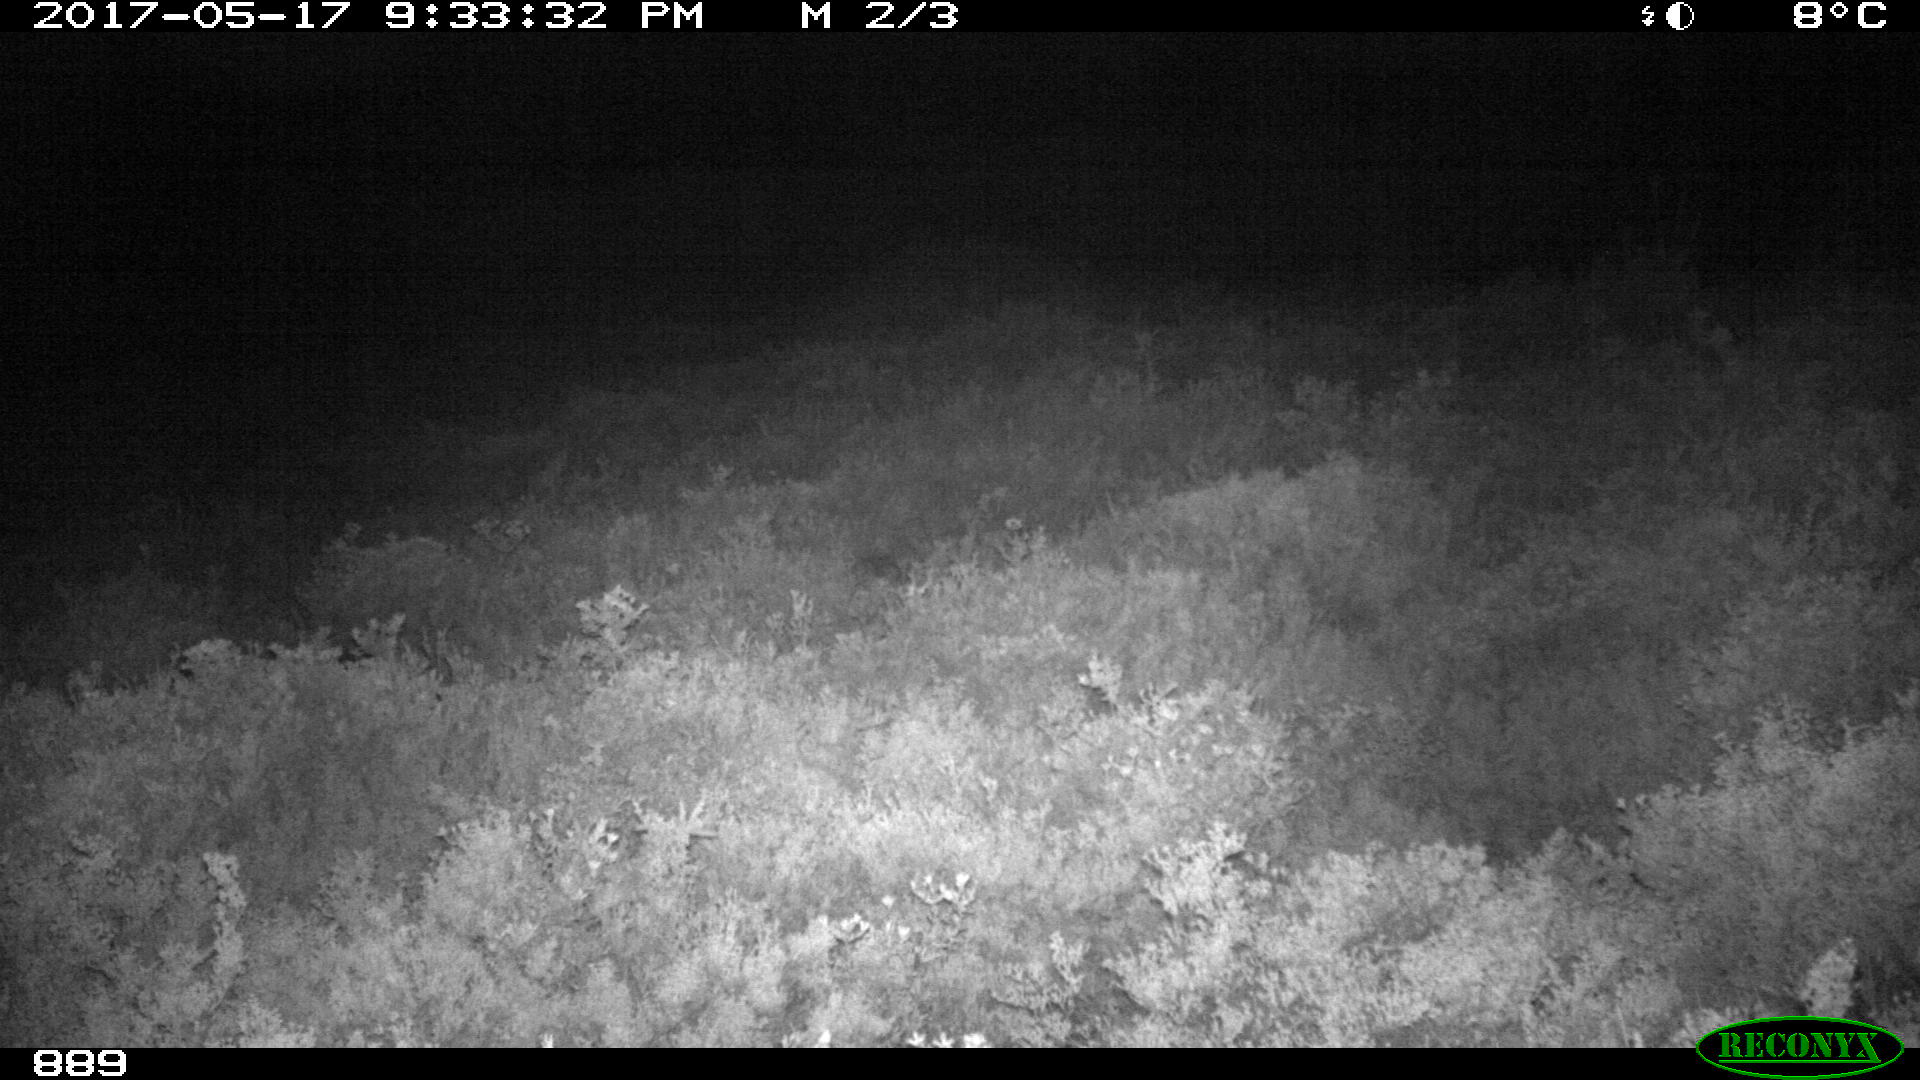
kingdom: Animalia
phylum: Chordata
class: Mammalia
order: Artiodactyla
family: Cervidae
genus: Capreolus
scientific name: Capreolus capreolus
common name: Western roe deer
